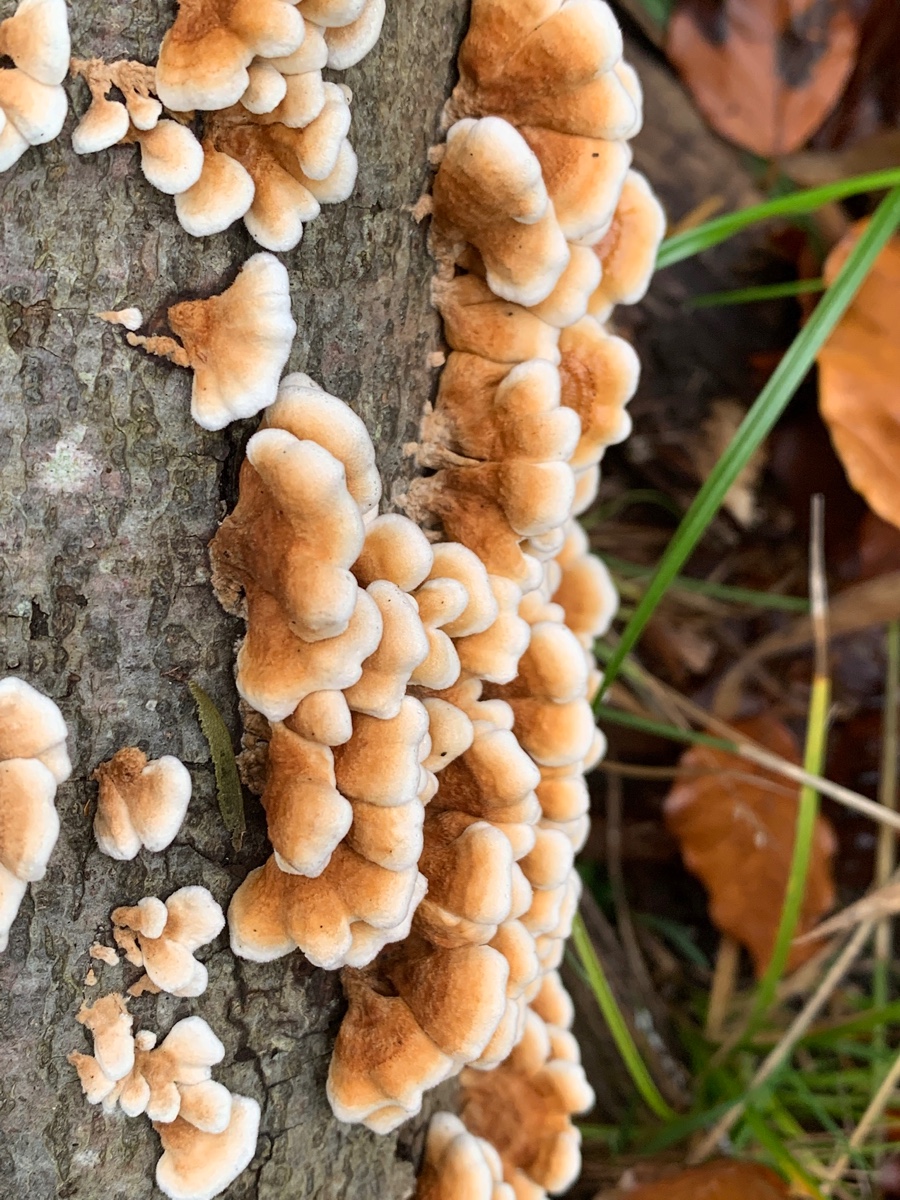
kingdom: Fungi
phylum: Basidiomycota
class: Agaricomycetes
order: Amylocorticiales
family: Amylocorticiaceae
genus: Plicaturopsis
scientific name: Plicaturopsis crispa
